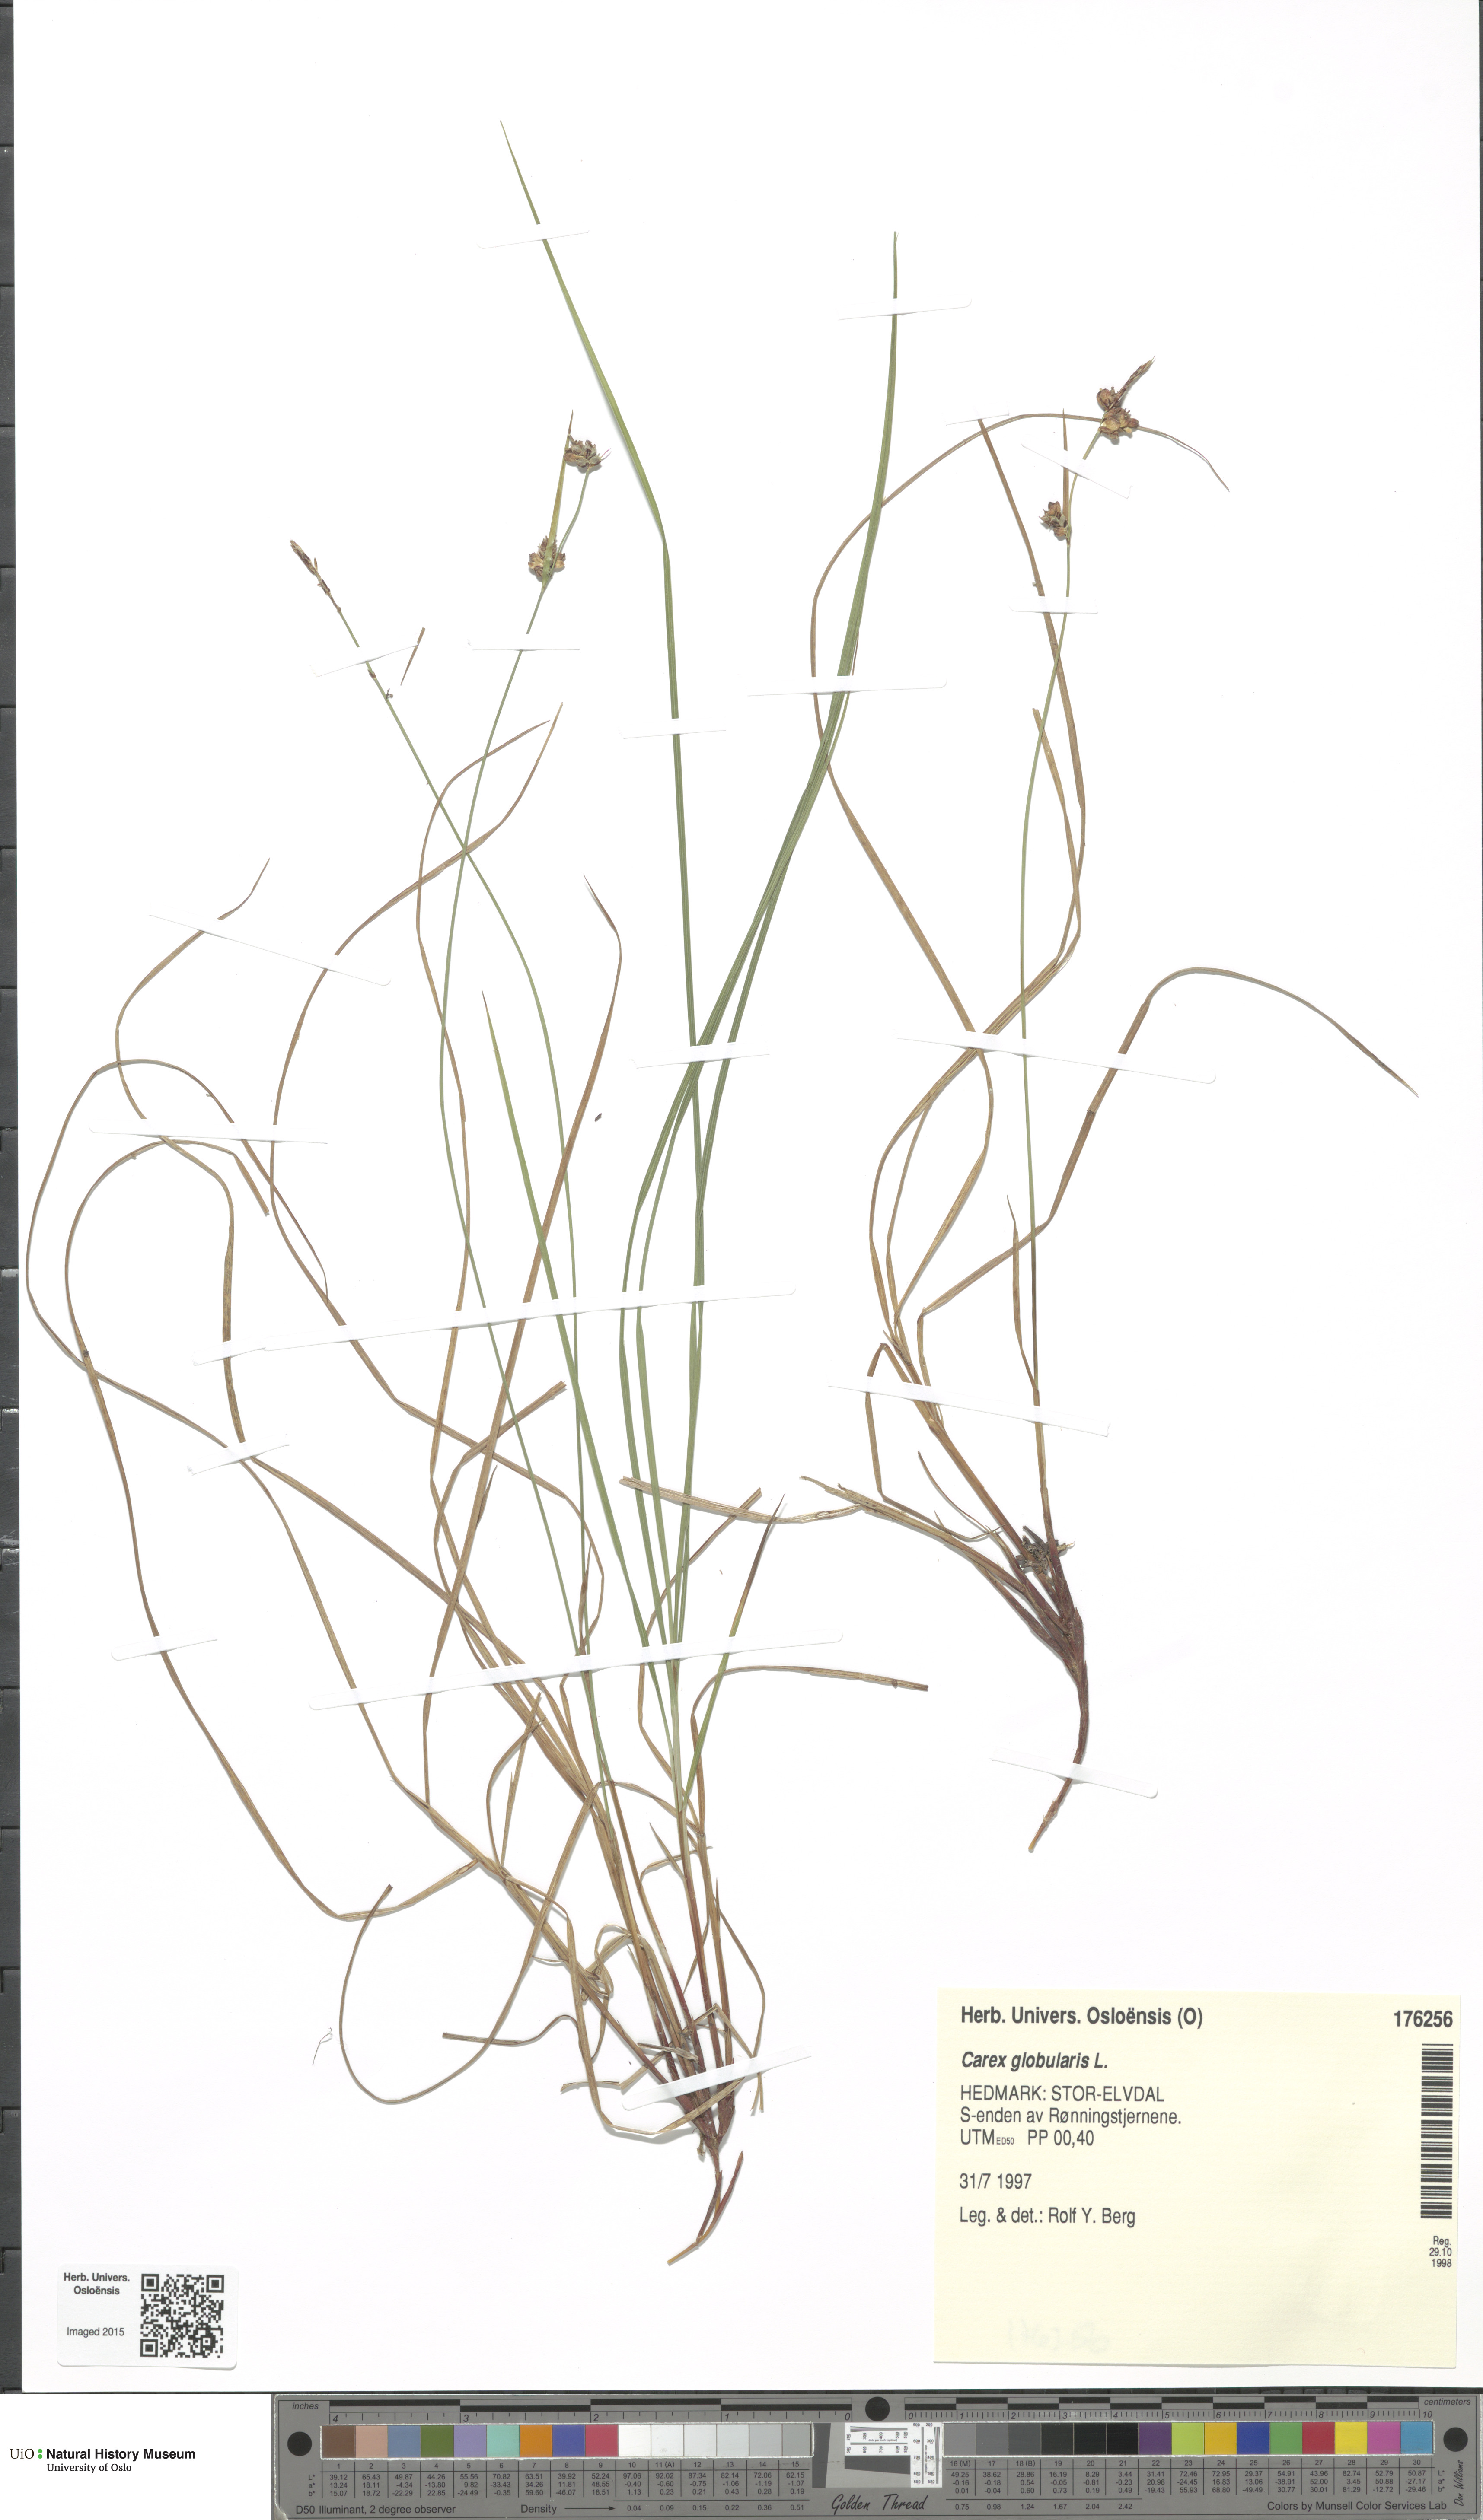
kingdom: Plantae
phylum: Tracheophyta
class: Liliopsida
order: Poales
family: Cyperaceae
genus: Carex
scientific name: Carex globularis
